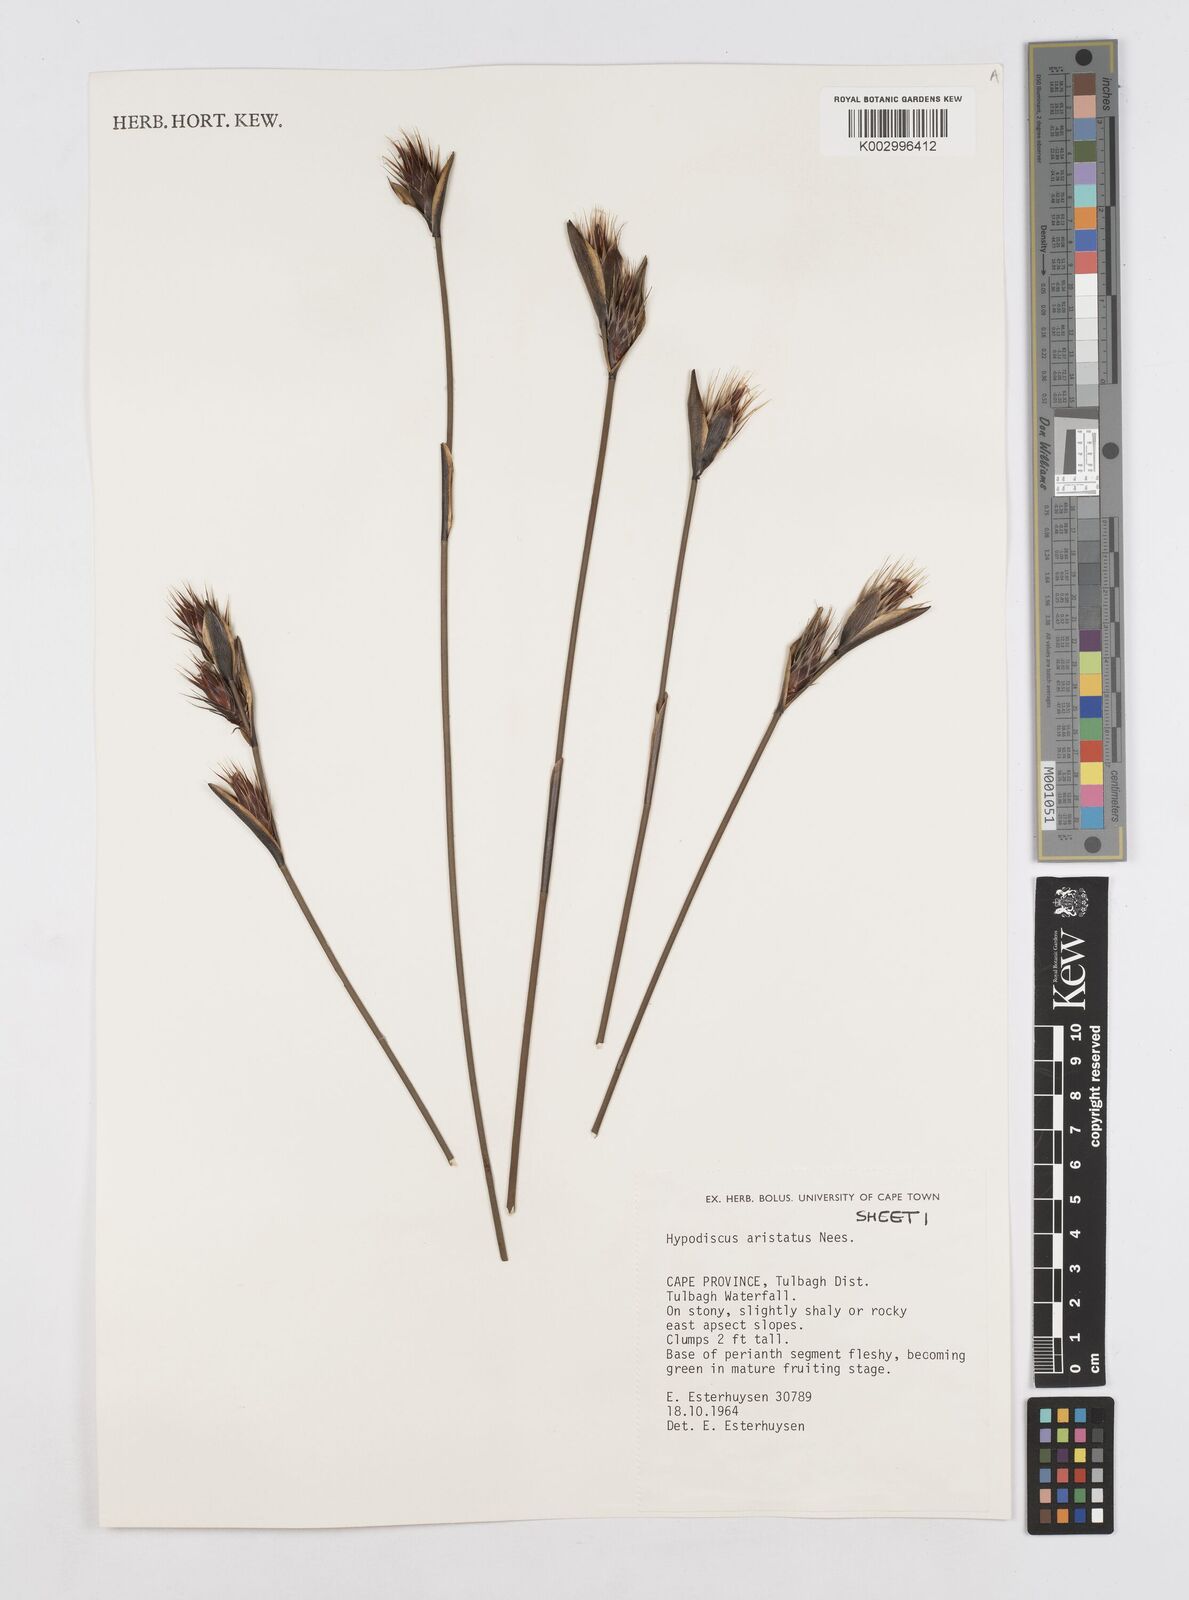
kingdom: Plantae
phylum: Tracheophyta
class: Liliopsida
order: Poales
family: Restionaceae
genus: Hypodiscus
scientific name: Hypodiscus aristatus
